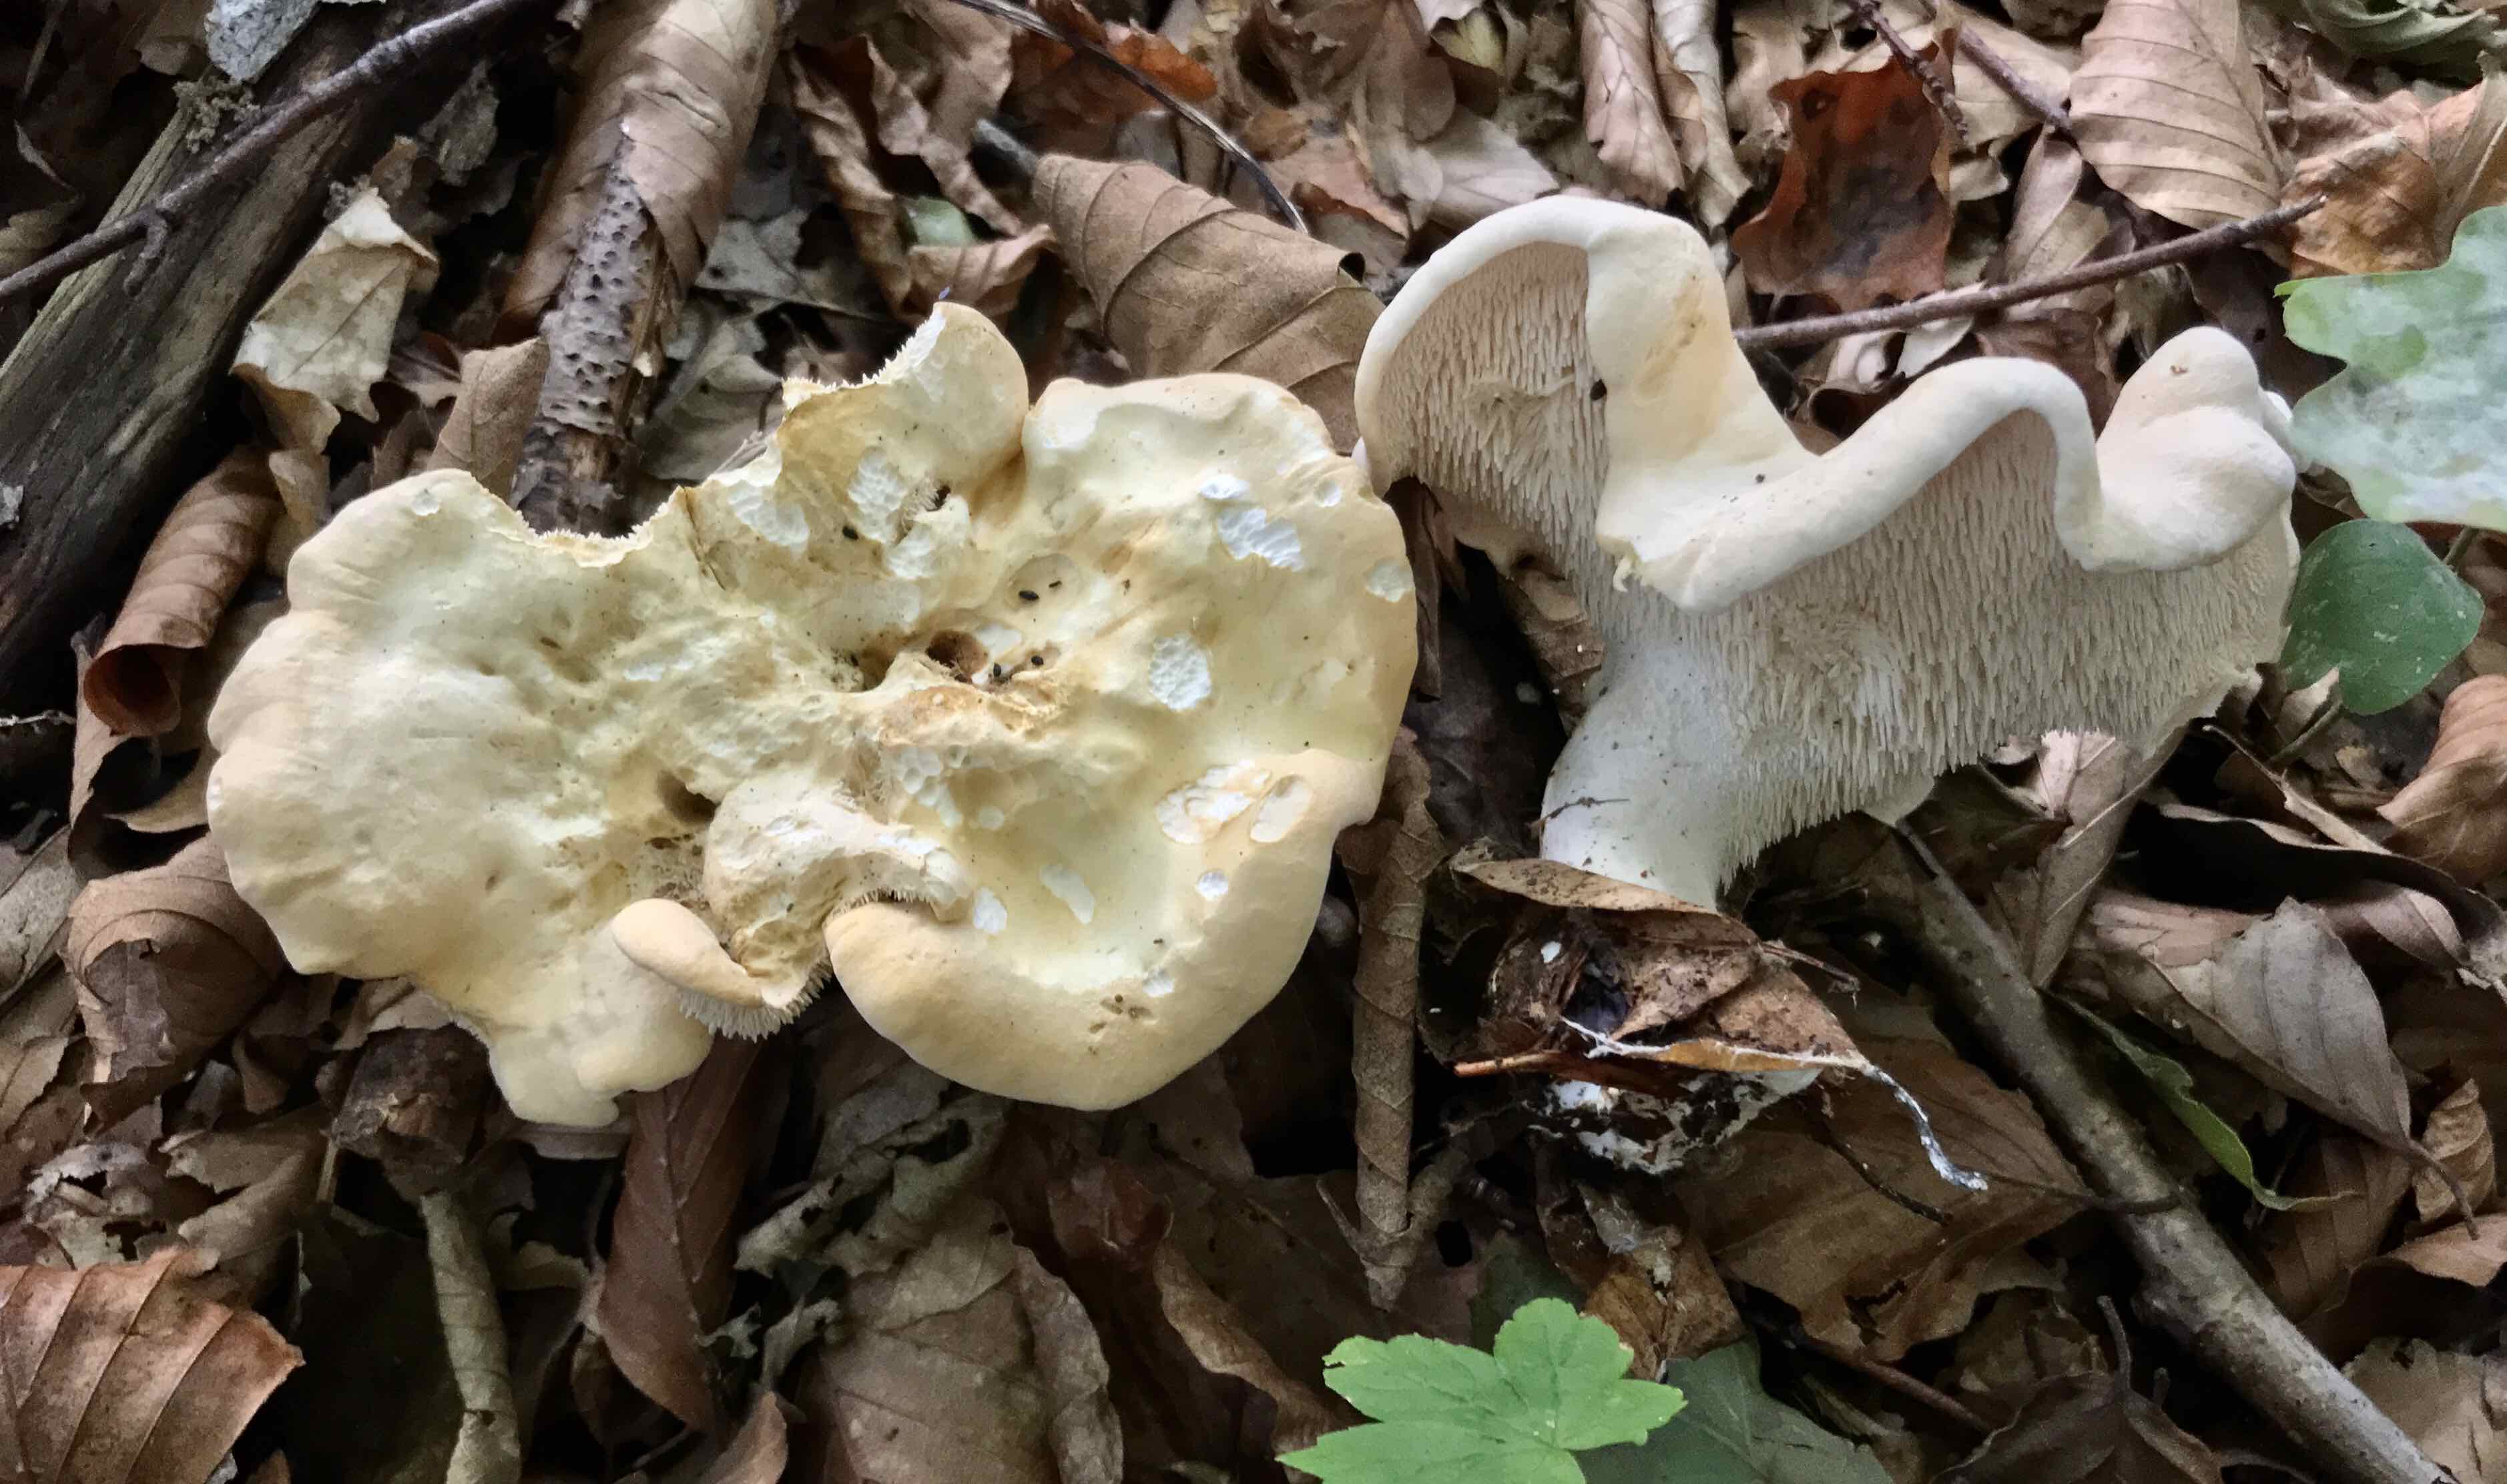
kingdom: Fungi
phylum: Basidiomycota
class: Agaricomycetes
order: Cantharellales
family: Hydnaceae
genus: Hydnum
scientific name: Hydnum repandum
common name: almindelig pigsvamp
